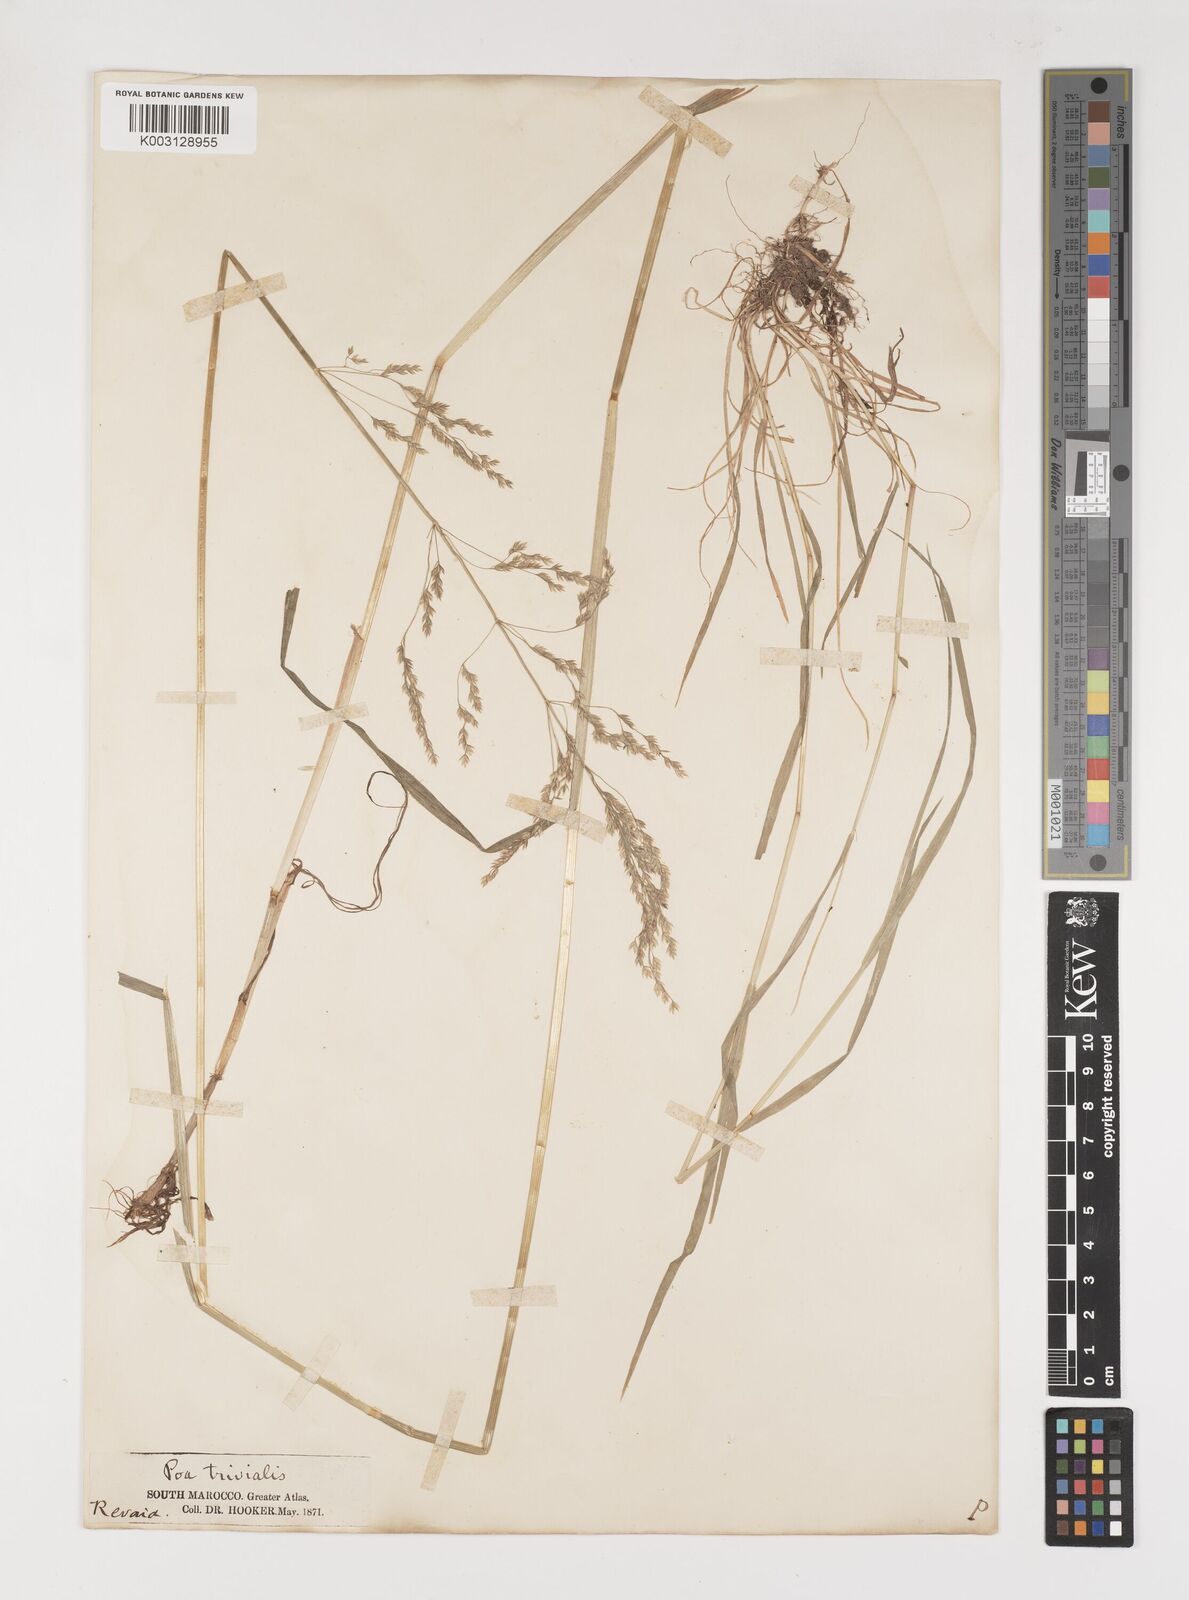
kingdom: Plantae
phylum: Tracheophyta
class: Liliopsida
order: Poales
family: Poaceae
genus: Poa
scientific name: Poa trivialis
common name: Rough bluegrass
